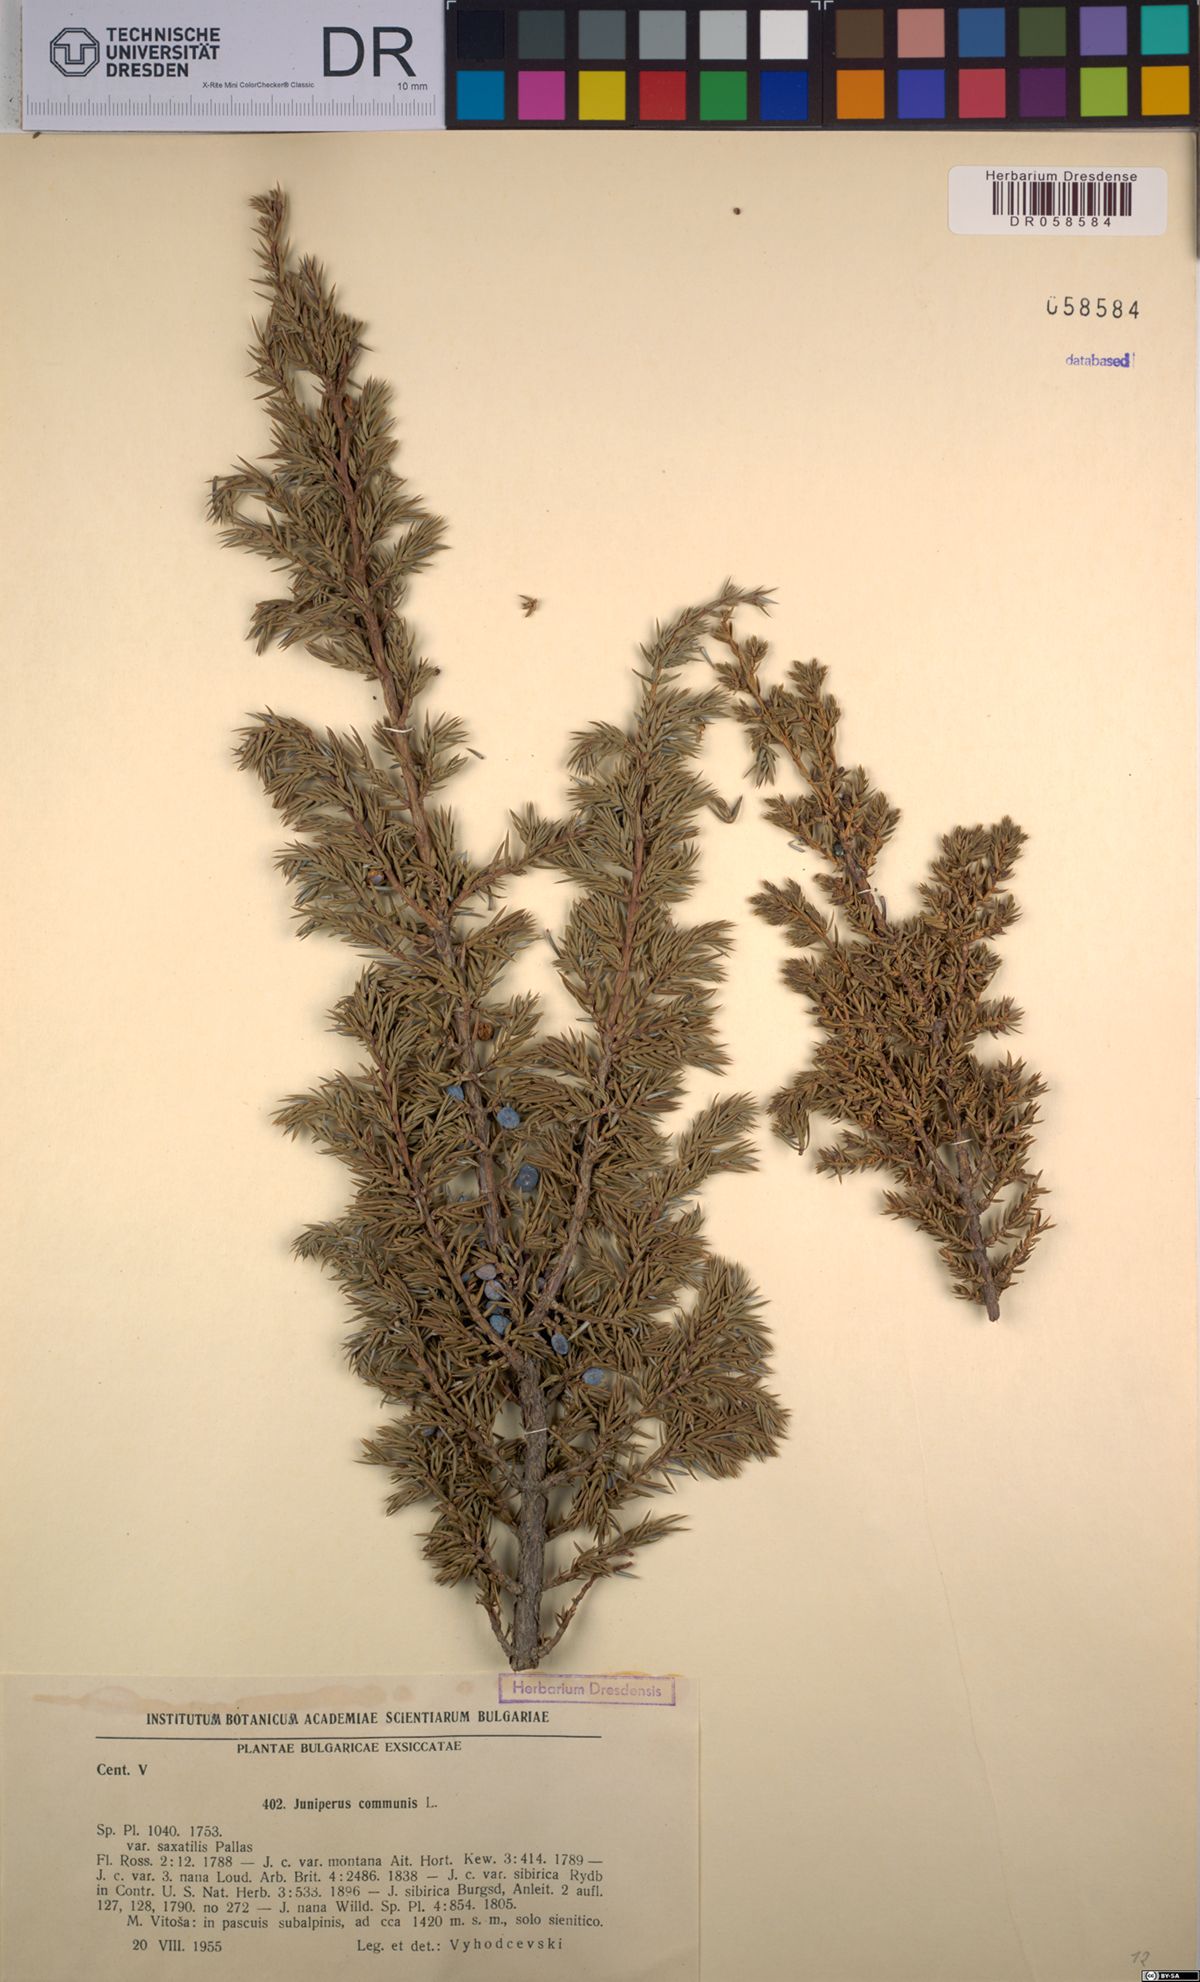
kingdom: Plantae
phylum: Tracheophyta
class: Pinopsida
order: Pinales
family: Cupressaceae
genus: Juniperus
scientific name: Juniperus communis
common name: Common juniper
